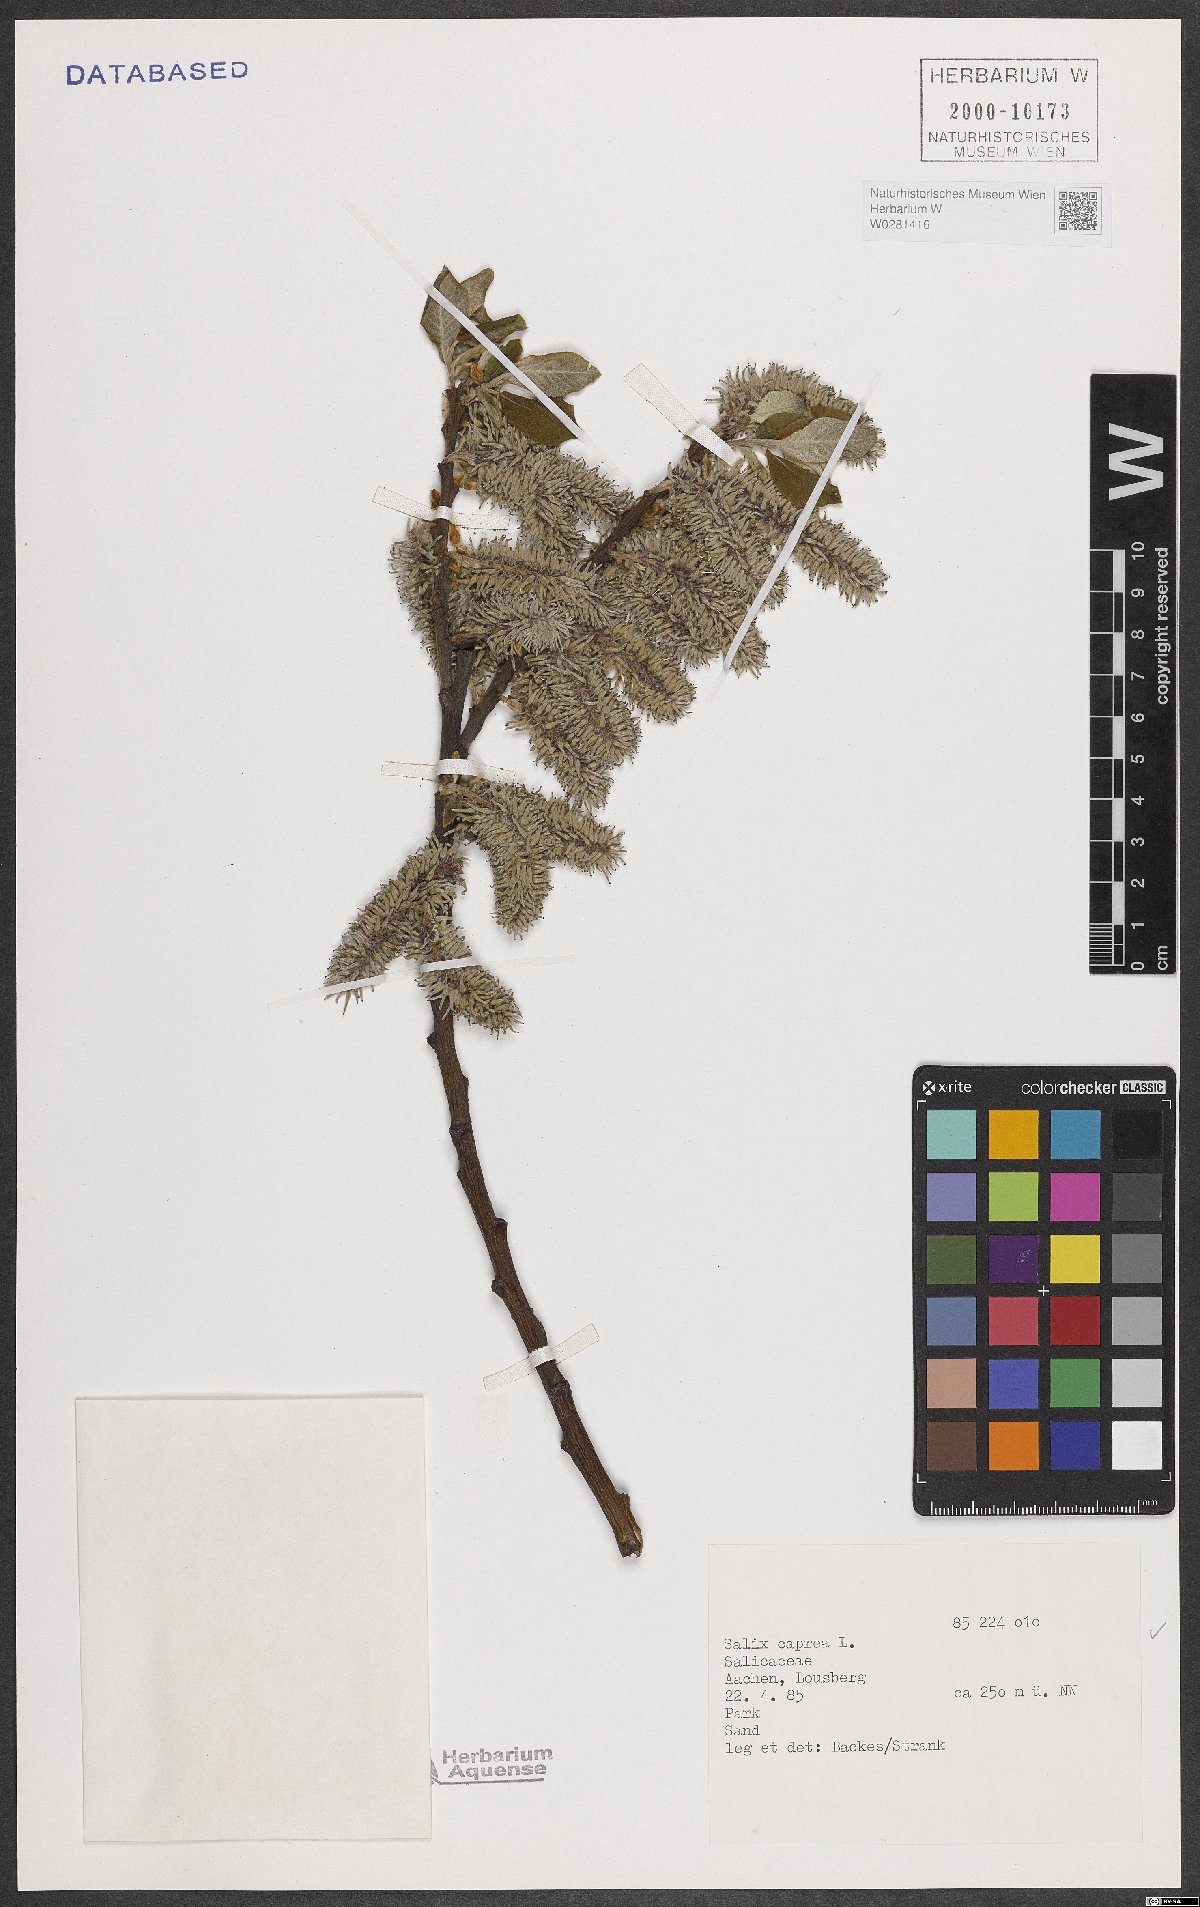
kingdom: Plantae
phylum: Tracheophyta
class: Magnoliopsida
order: Malpighiales
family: Salicaceae
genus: Salix
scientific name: Salix caprea
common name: Goat willow
